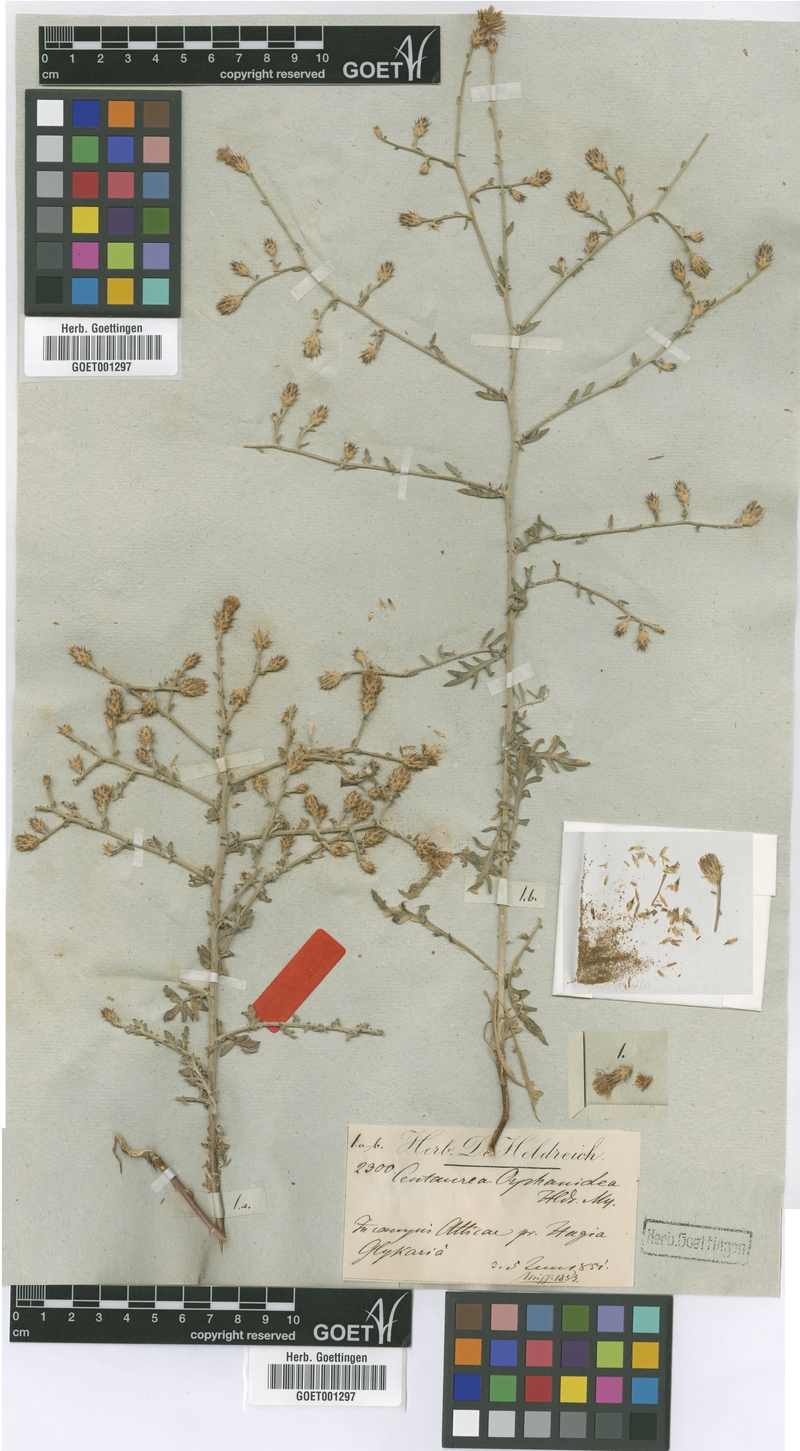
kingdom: Plantae
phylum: Tracheophyta
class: Magnoliopsida
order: Asterales
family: Asteraceae
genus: Centaurea
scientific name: Centaurea orphanidea
